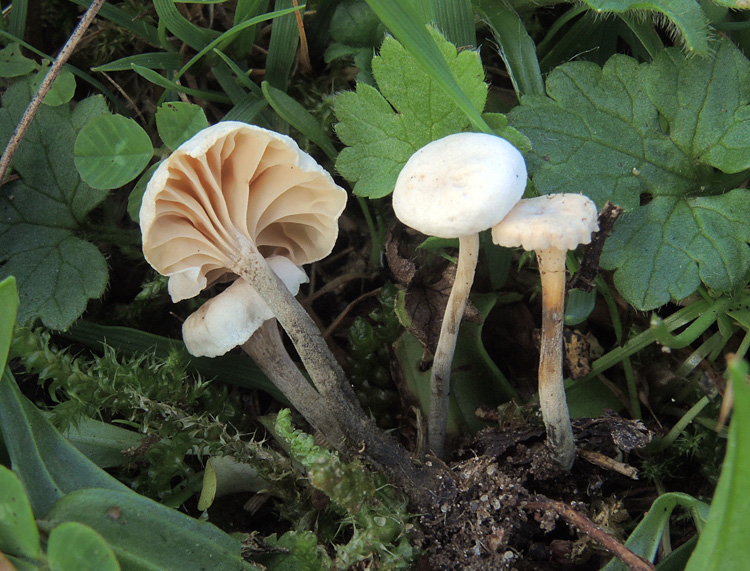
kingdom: Fungi
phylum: Basidiomycota
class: Agaricomycetes
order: Agaricales
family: Omphalotaceae
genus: Marasmiellus
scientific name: Marasmiellus tricolor
